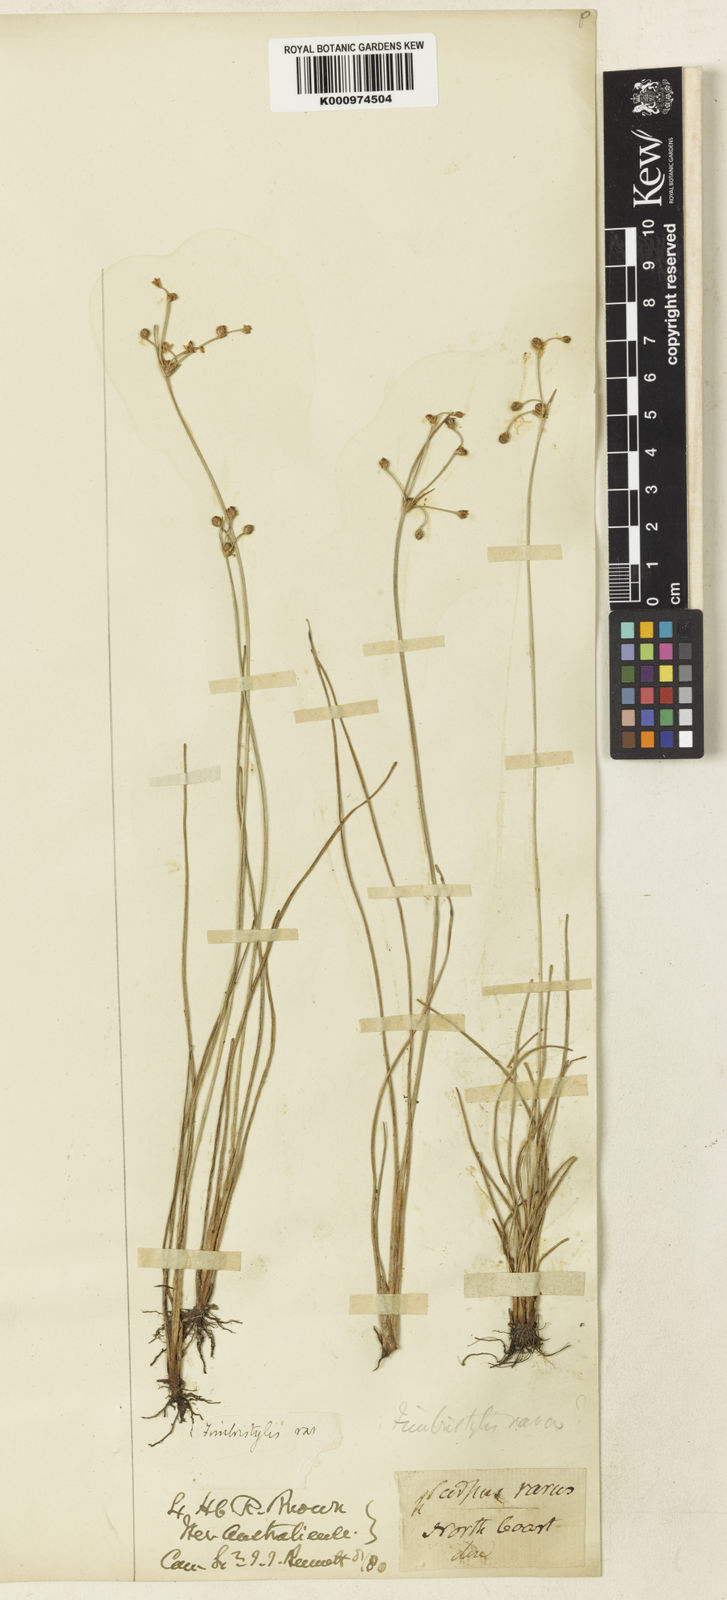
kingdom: Plantae
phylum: Tracheophyta
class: Liliopsida
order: Poales
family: Cyperaceae
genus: Fimbristylis
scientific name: Fimbristylis rara
